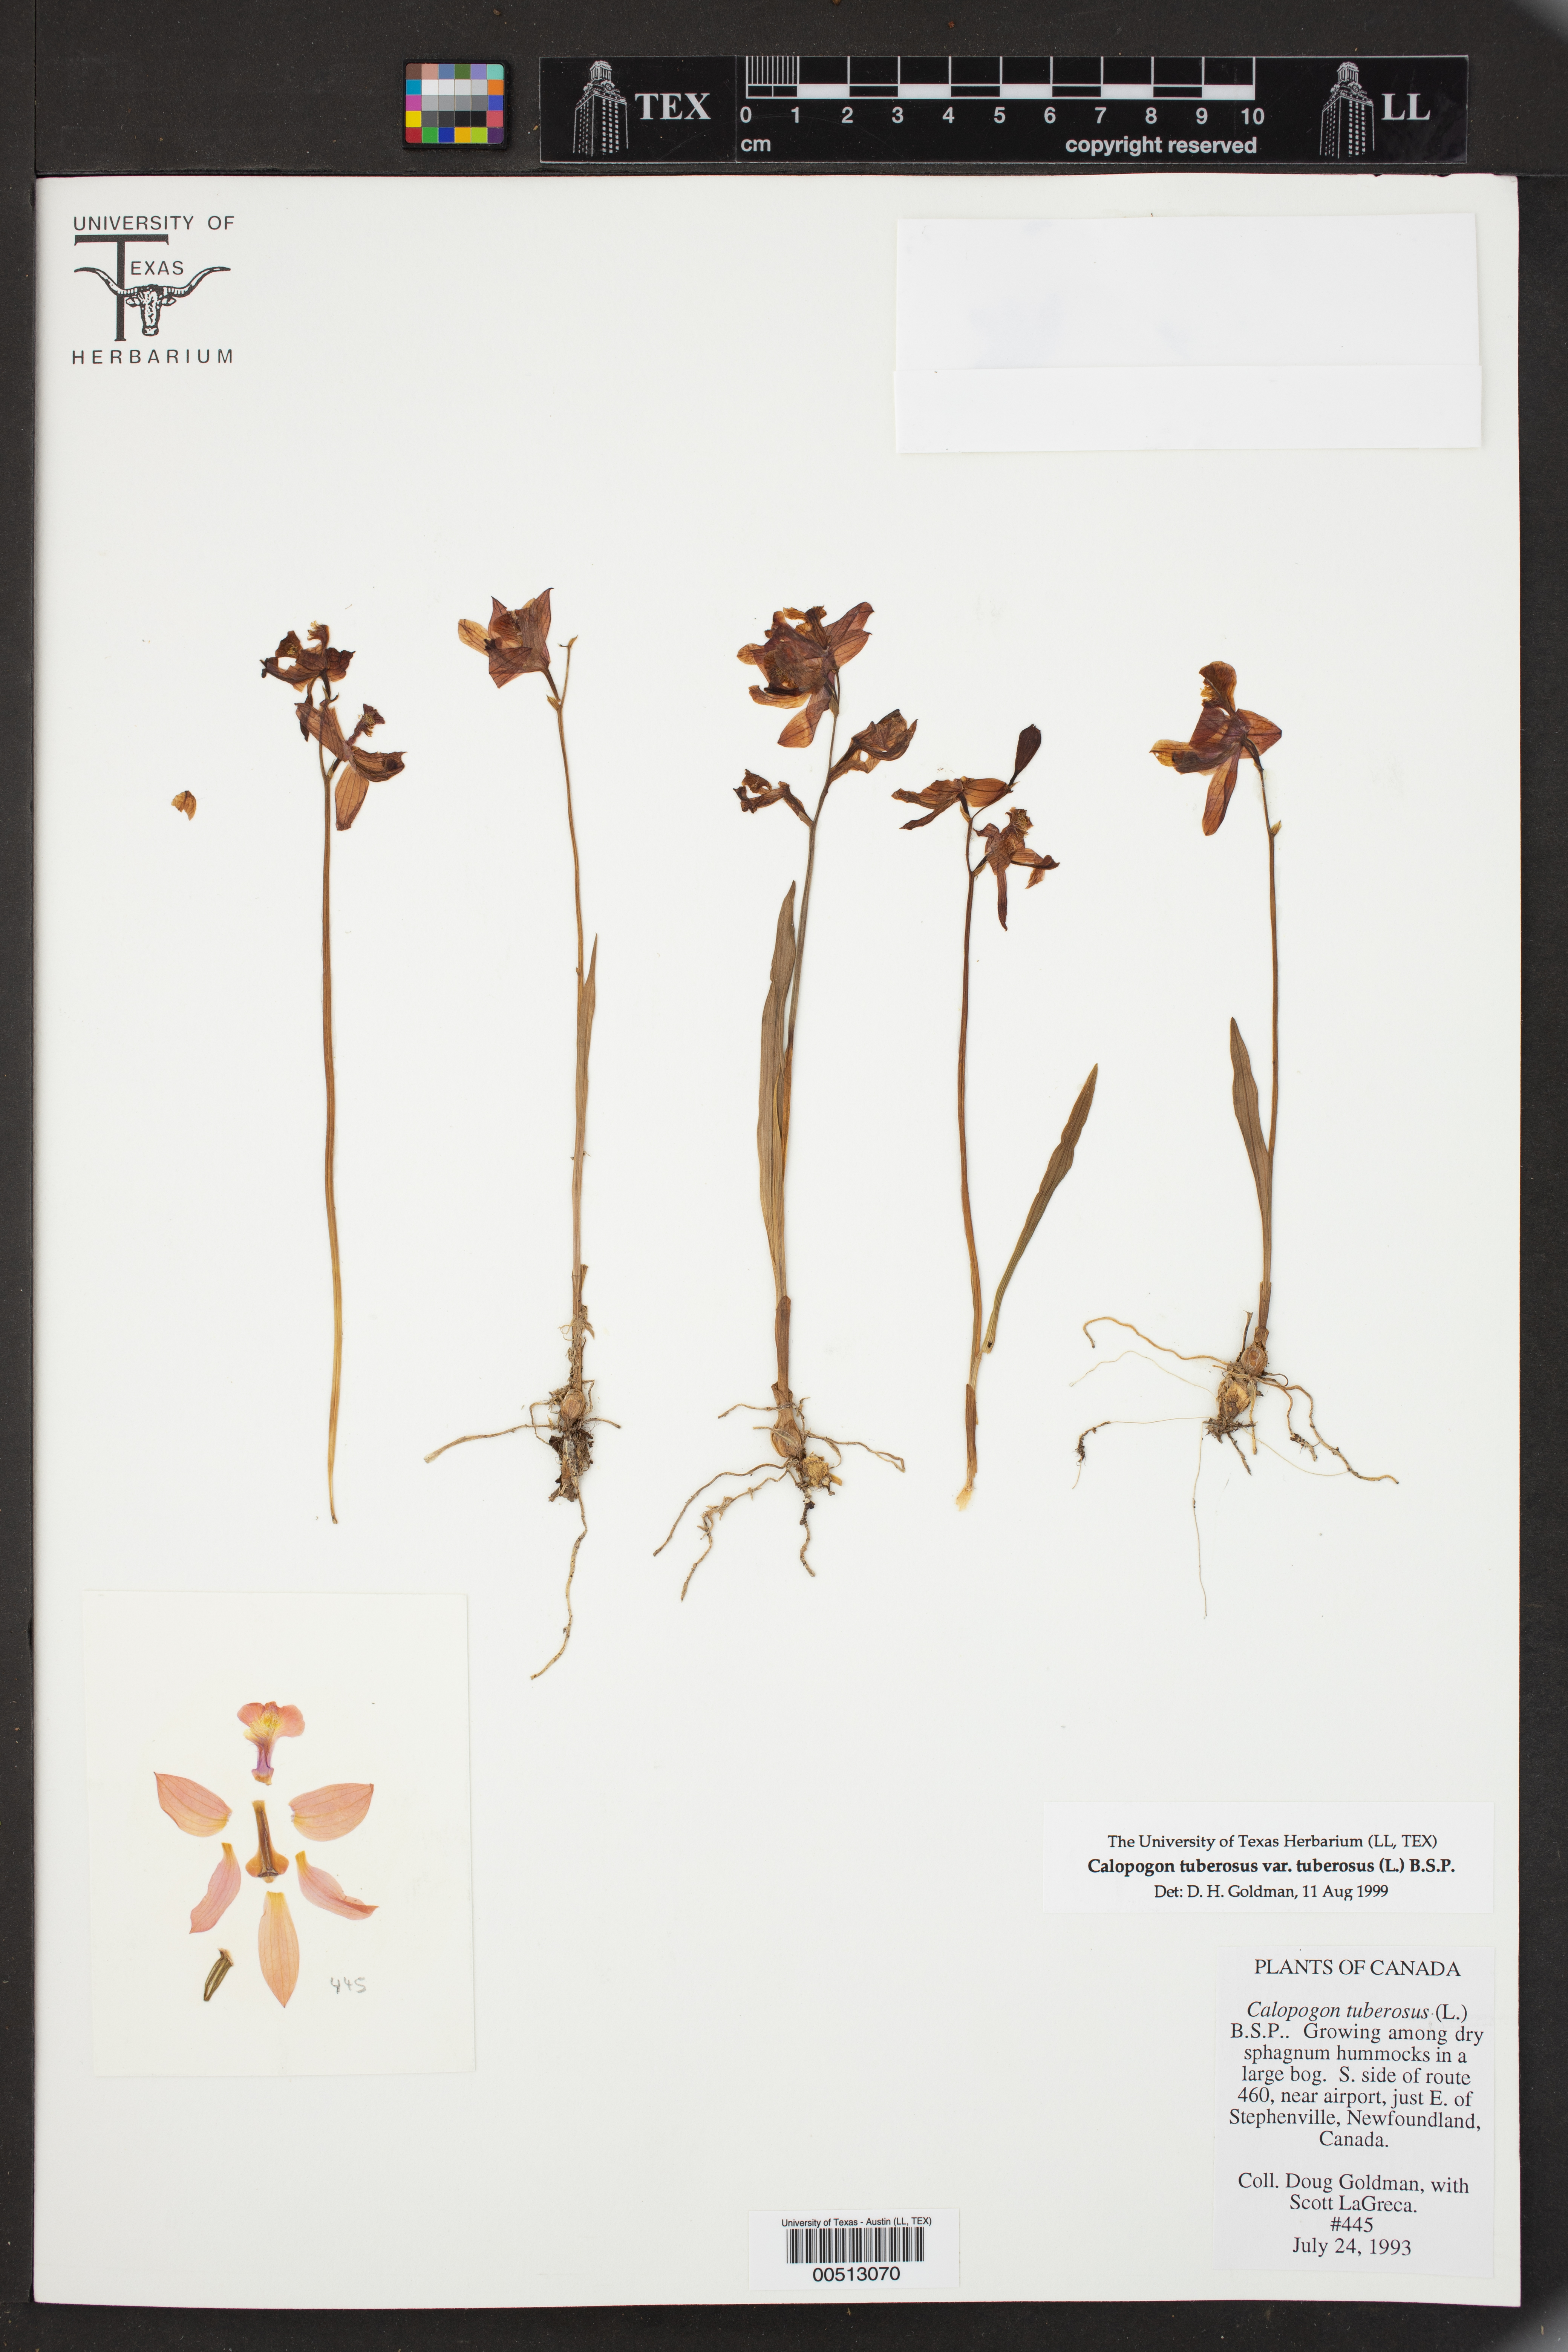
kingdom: Plantae
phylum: Tracheophyta
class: Liliopsida
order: Asparagales
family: Orchidaceae
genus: Calopogon
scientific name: Calopogon tuberosus
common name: Grass-pink
